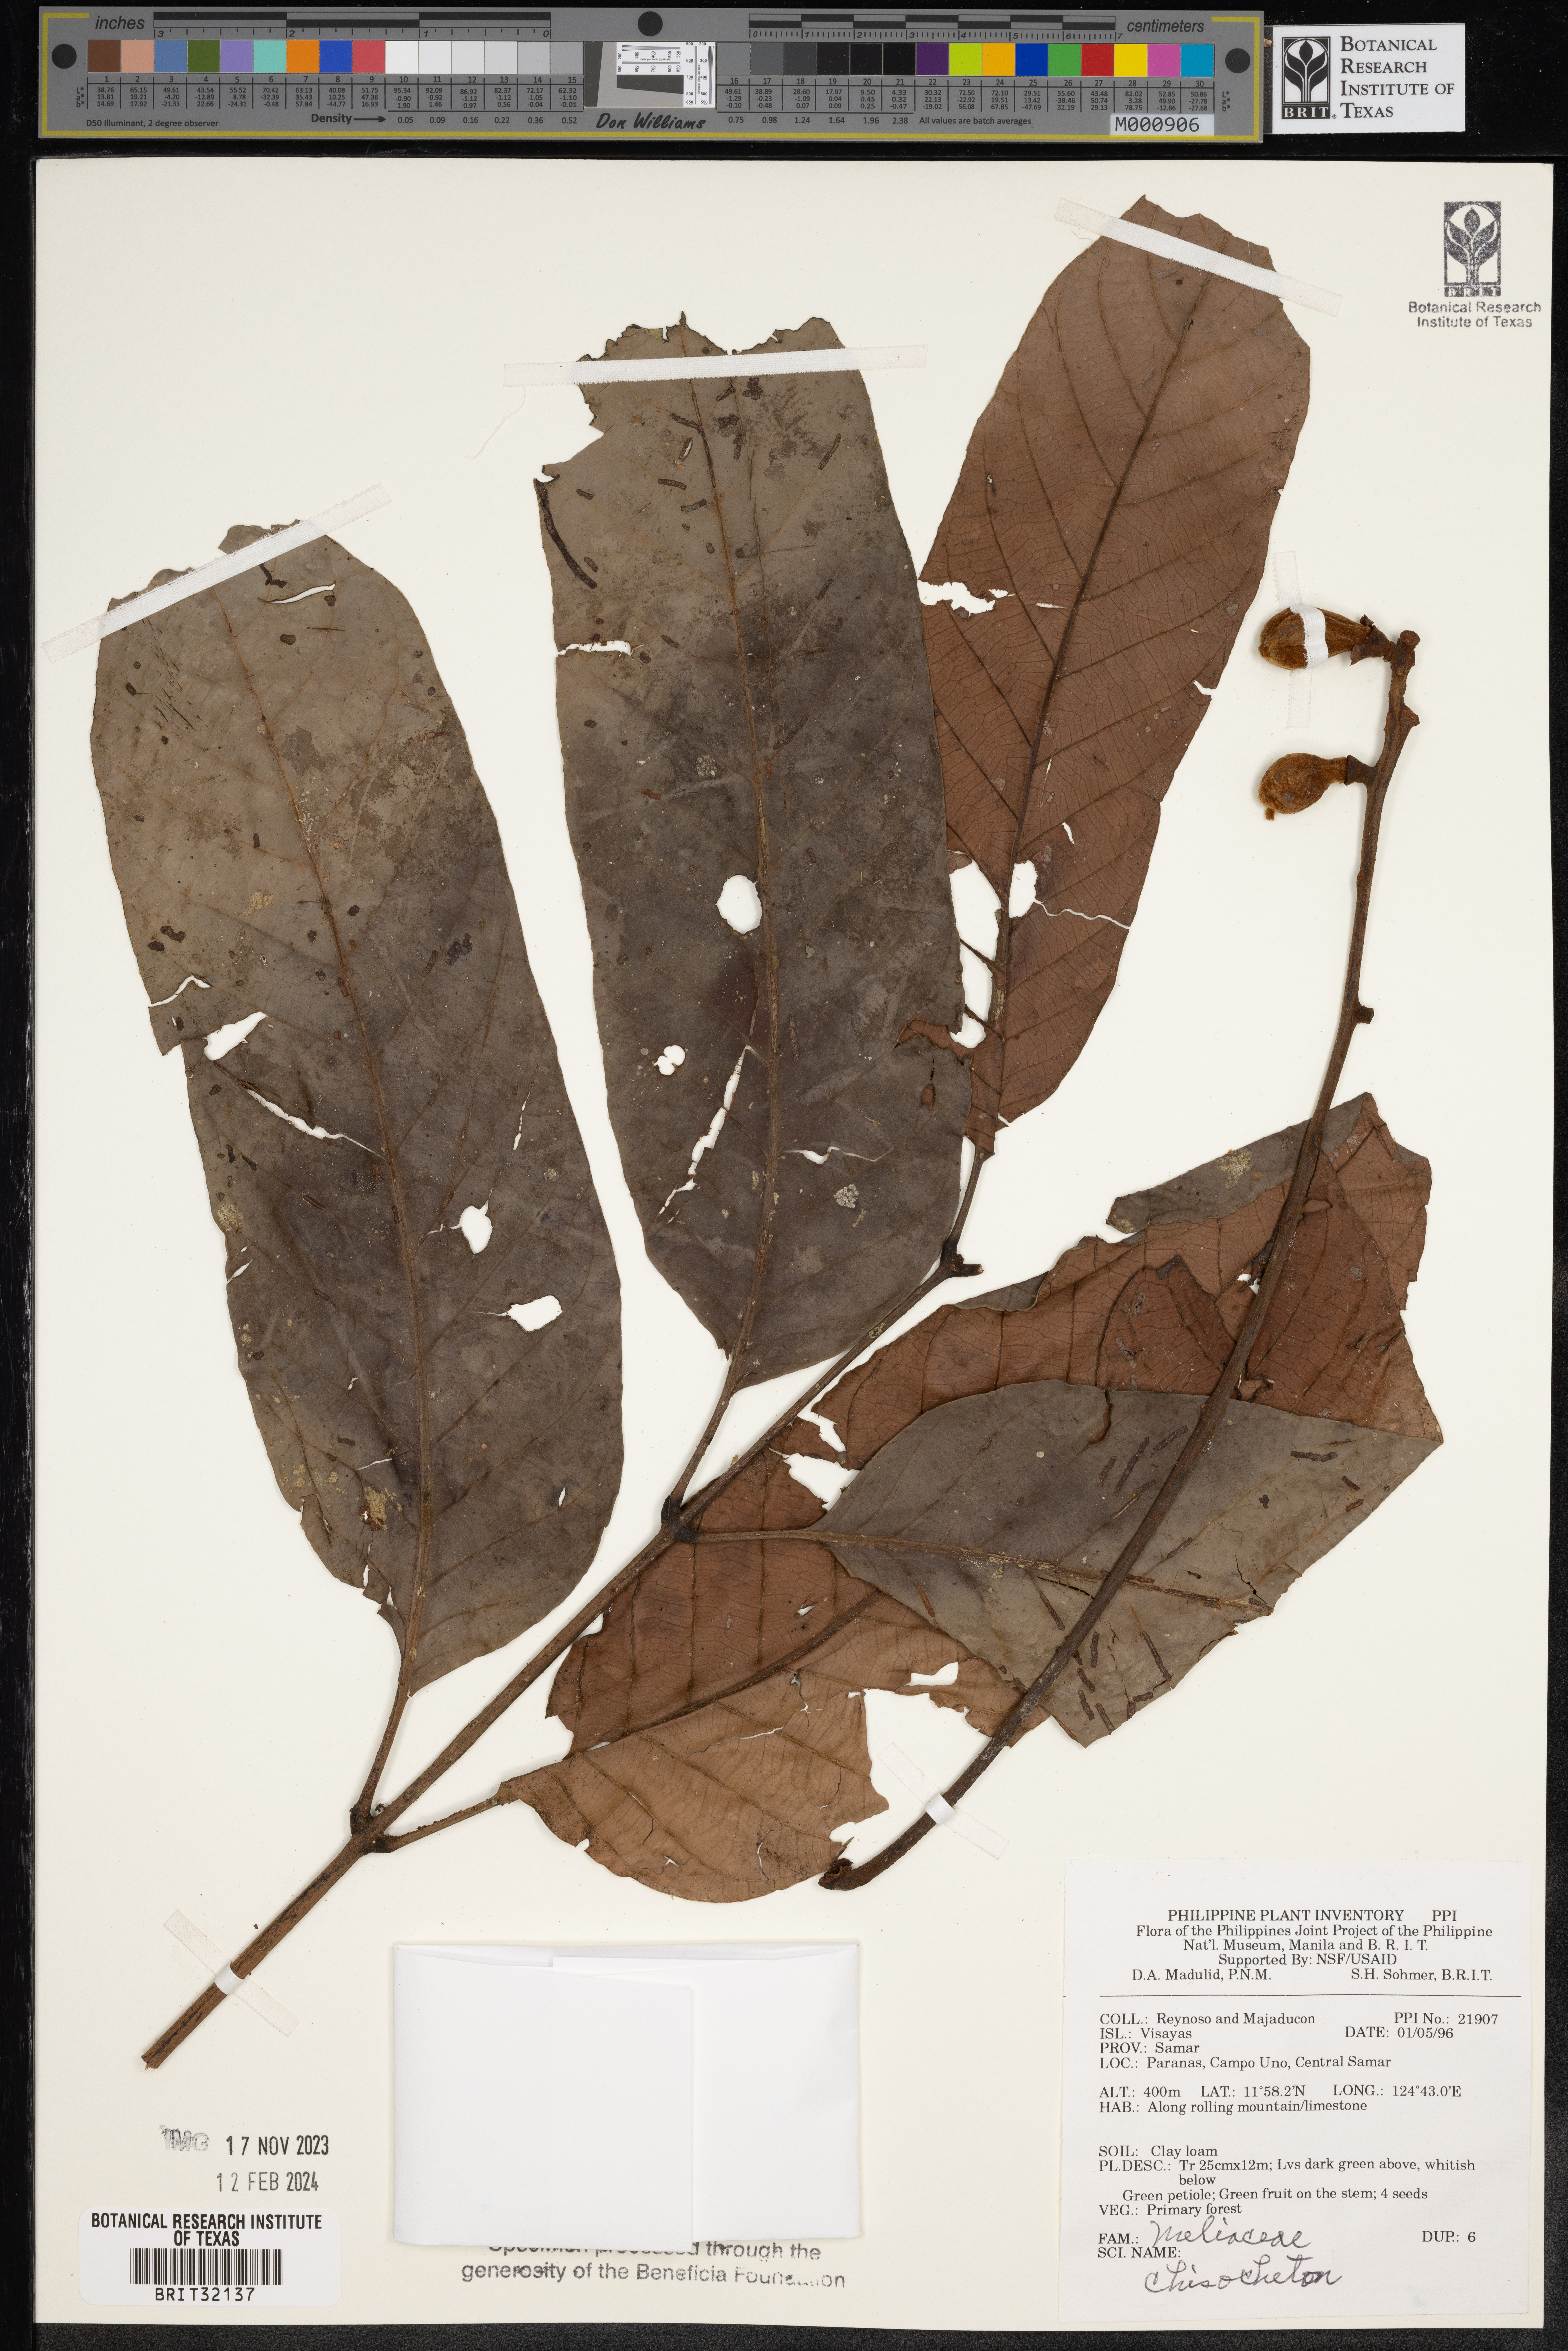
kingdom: Plantae
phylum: Tracheophyta
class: Magnoliopsida
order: Sapindales
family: Meliaceae
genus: Chisocheton
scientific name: Chisocheton
